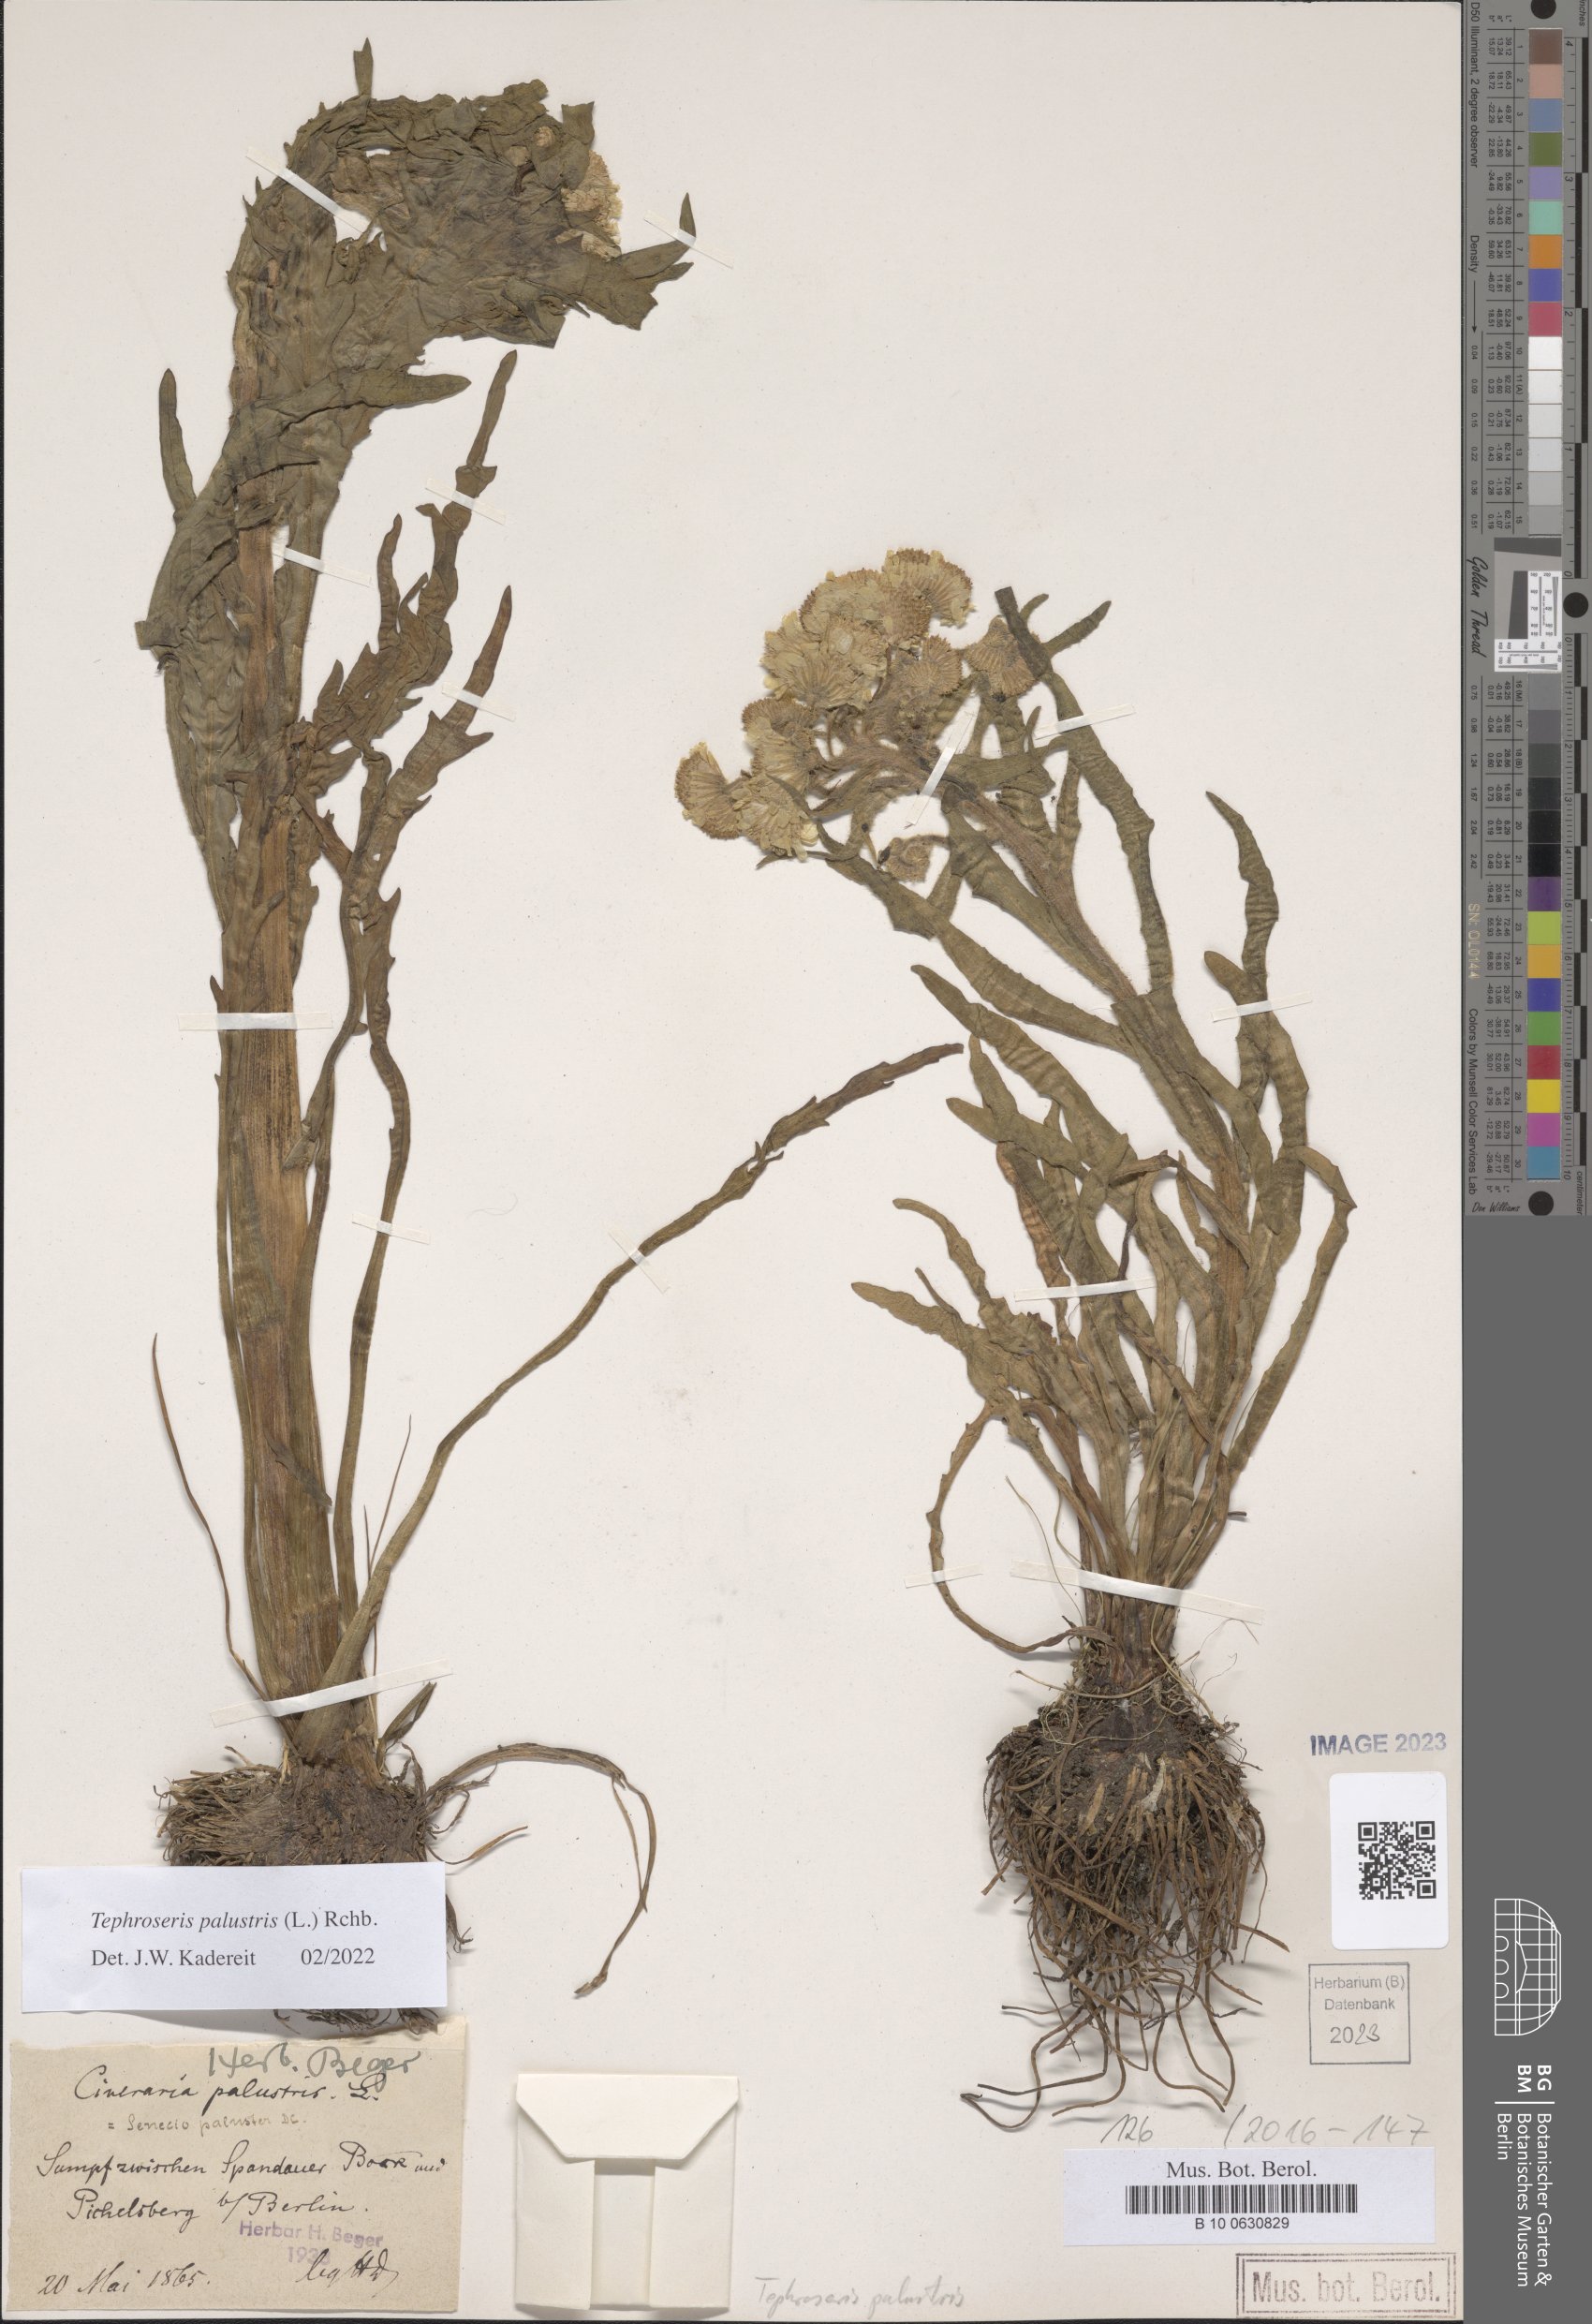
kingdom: Plantae
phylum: Tracheophyta
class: Magnoliopsida
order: Asterales
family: Asteraceae
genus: Tephroseris
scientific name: Tephroseris palustris
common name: Marsh fleawort
